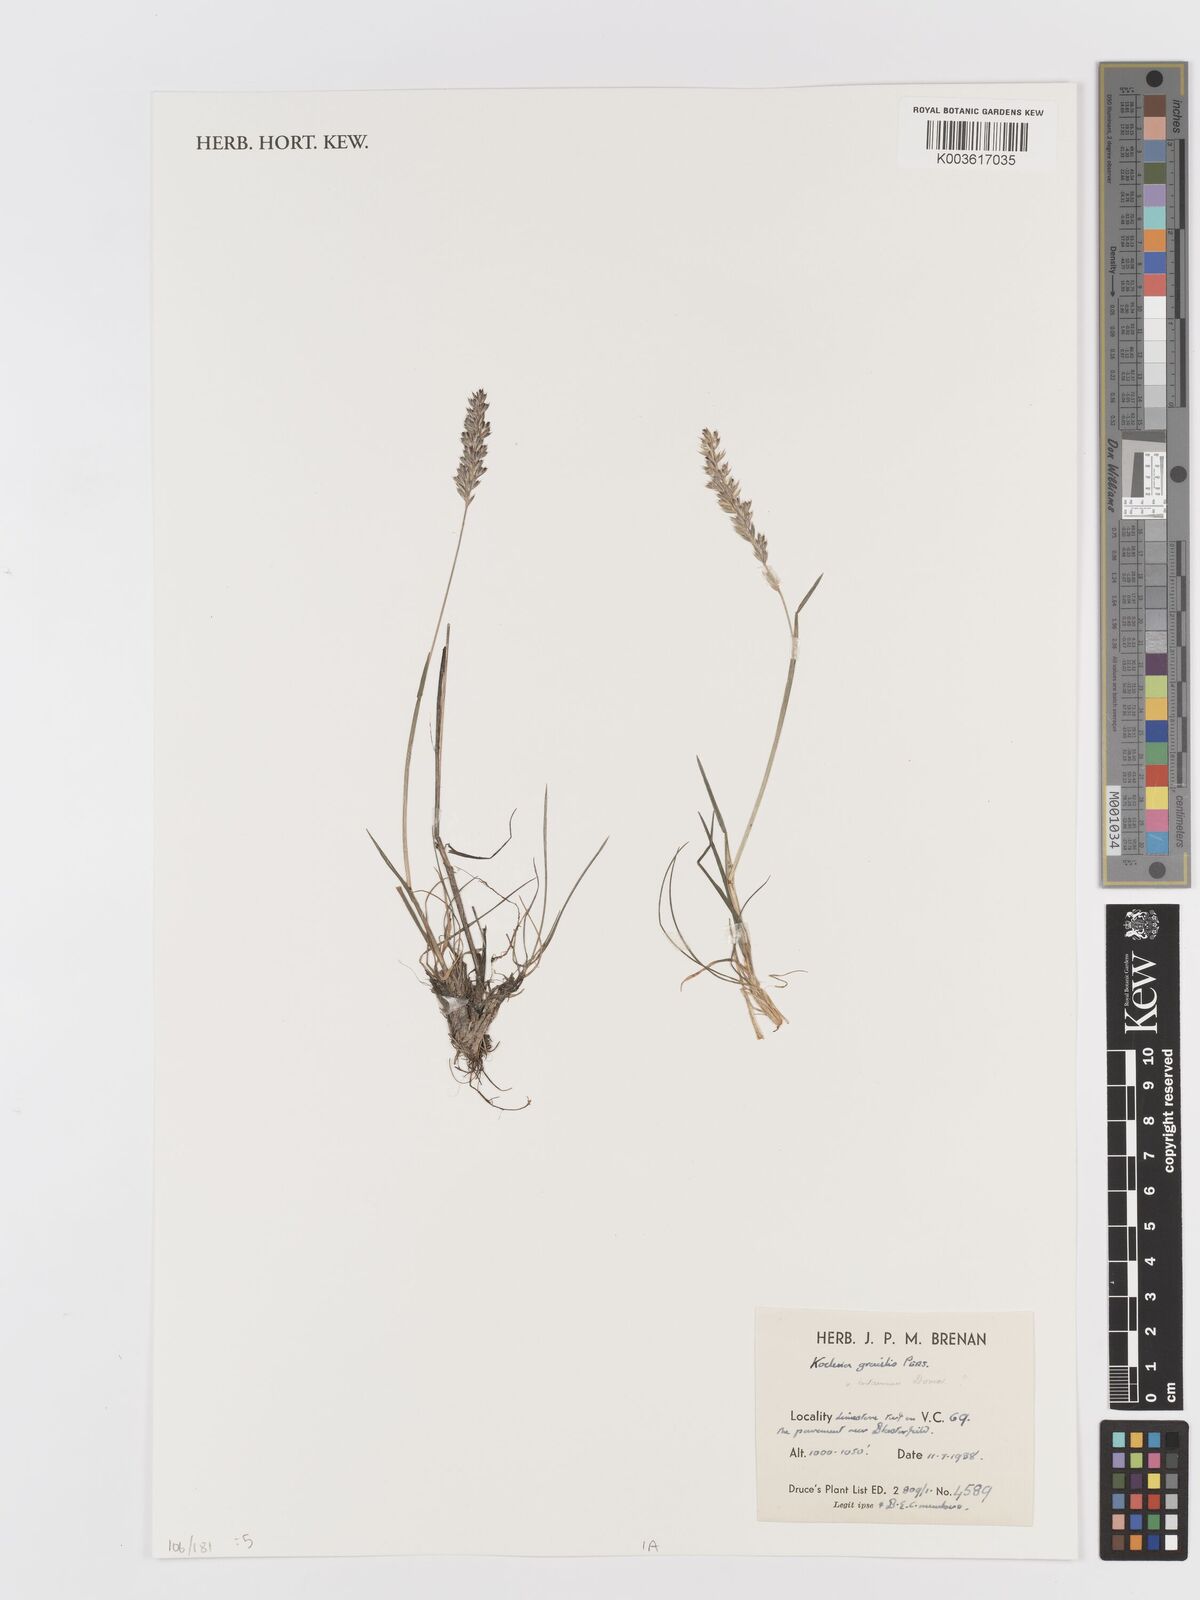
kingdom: Plantae
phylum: Tracheophyta
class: Liliopsida
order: Poales
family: Poaceae
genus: Koeleria
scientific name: Koeleria macrantha
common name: Crested hair-grass
